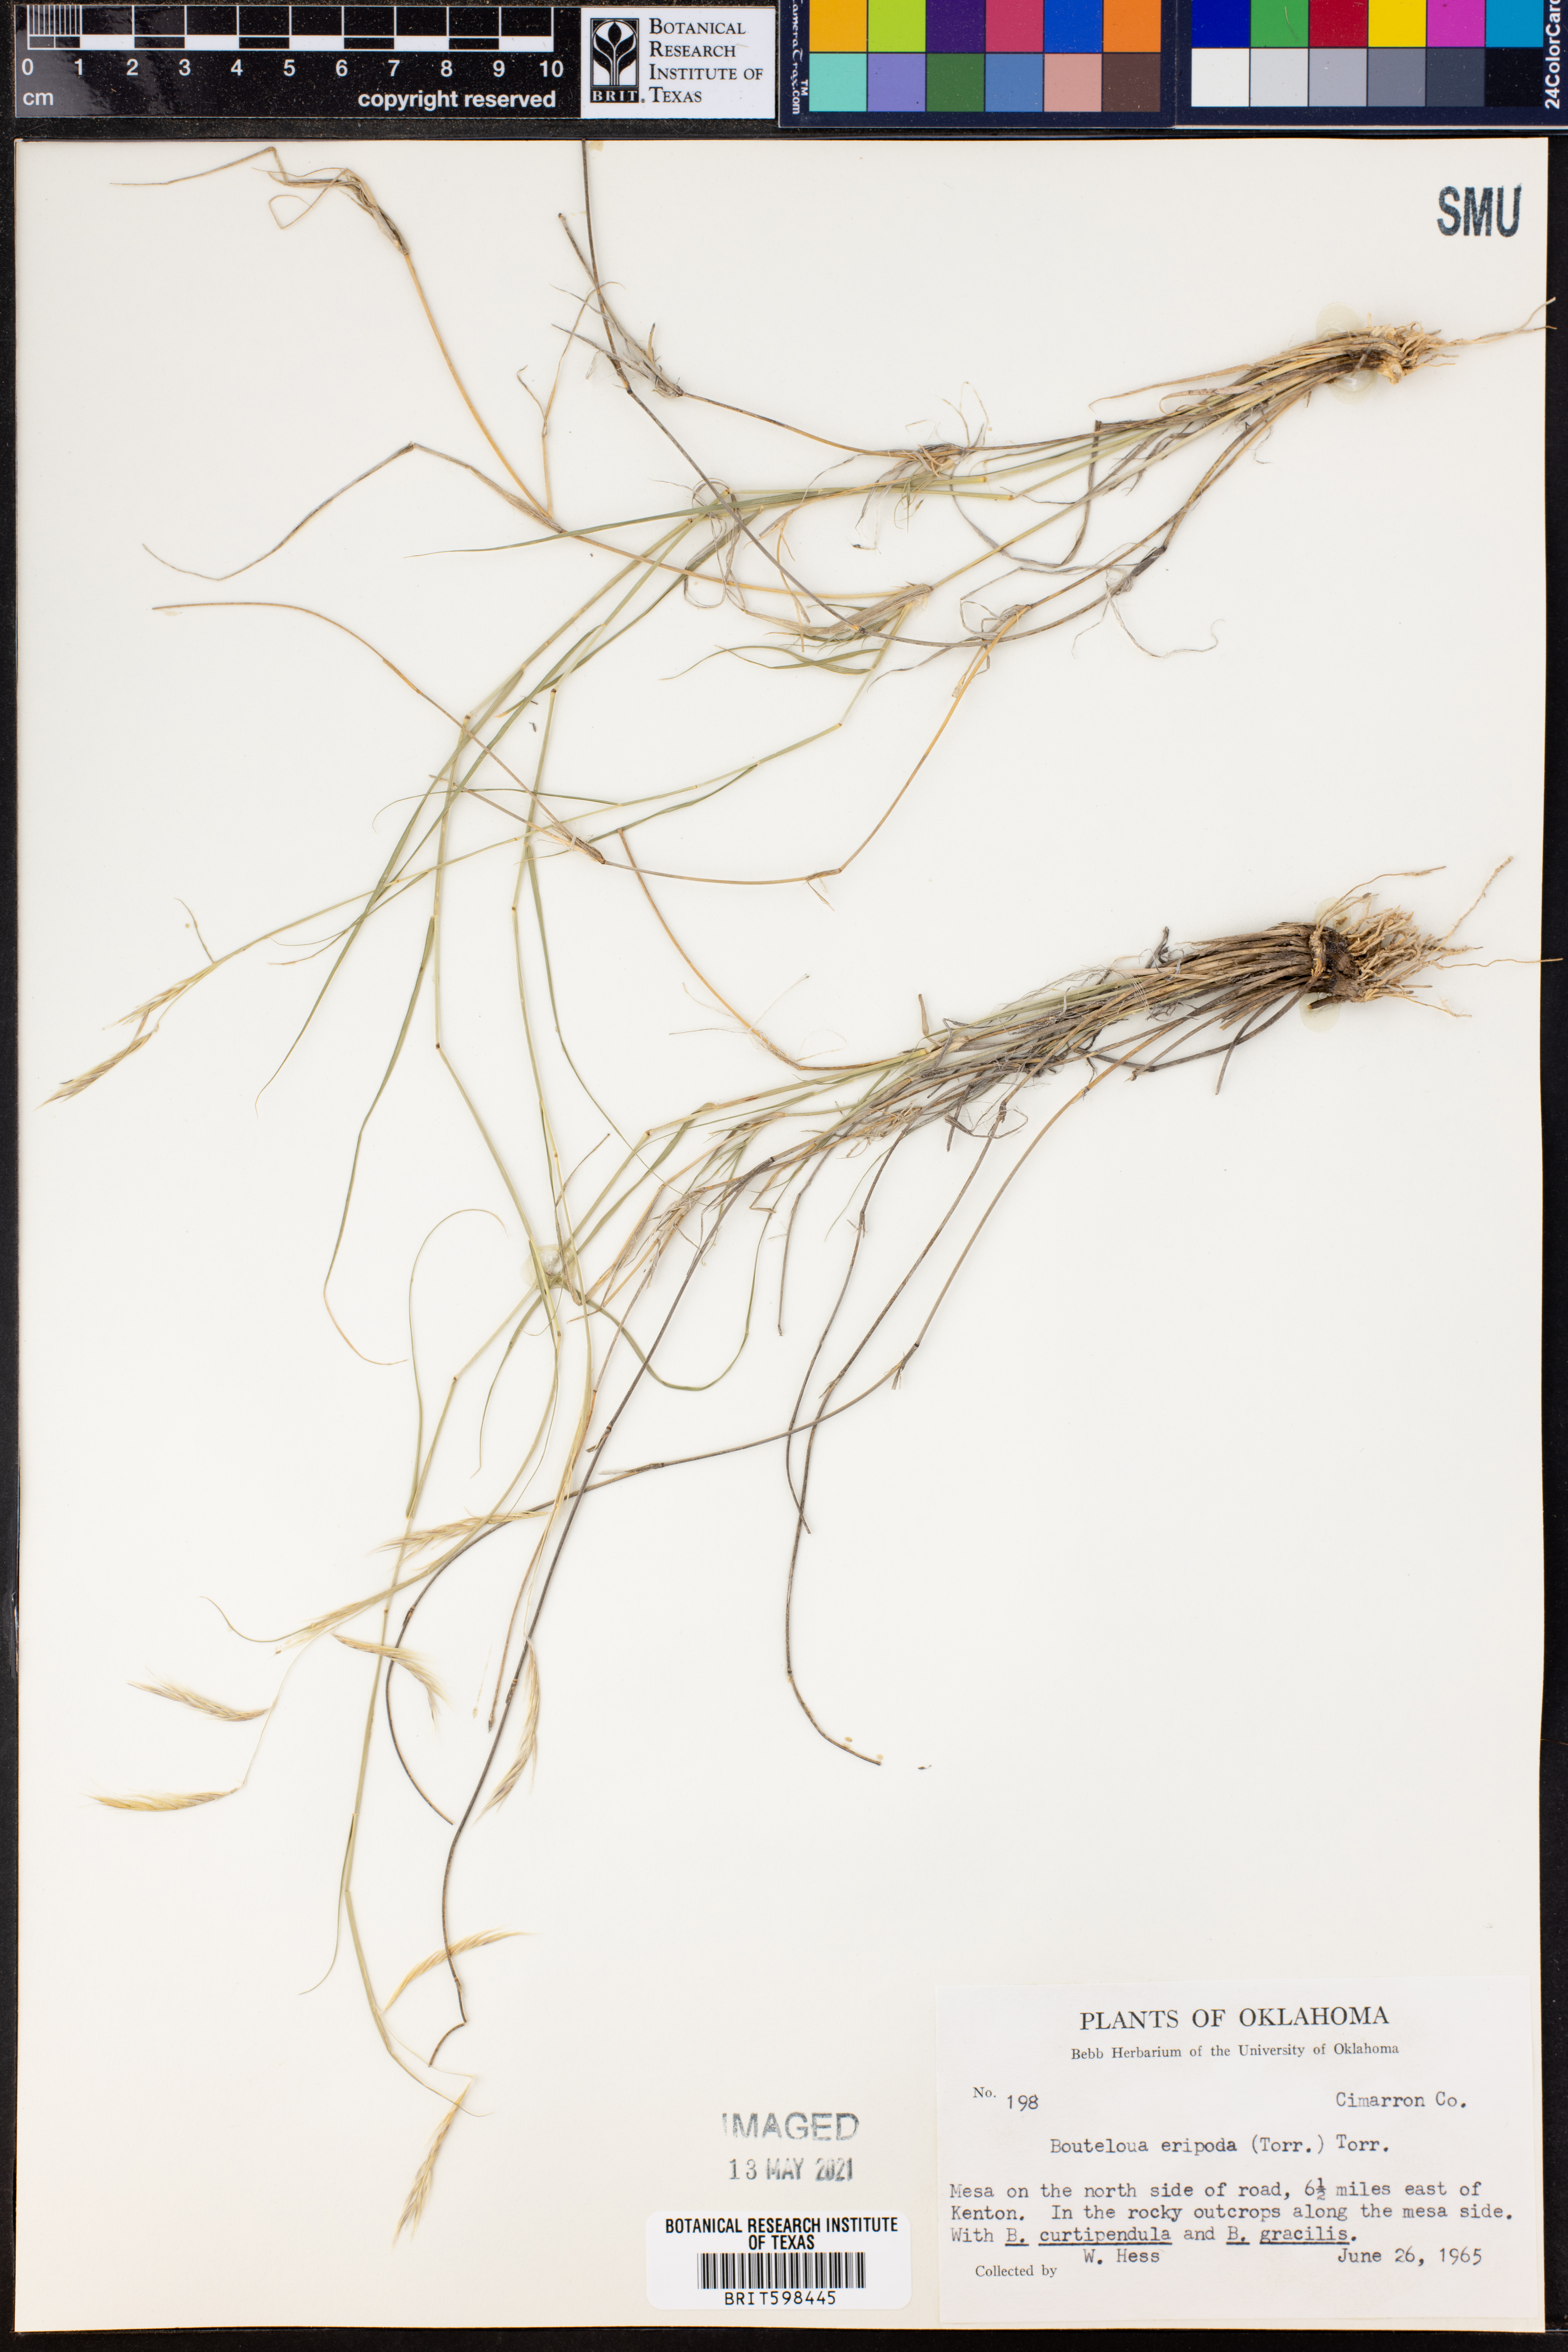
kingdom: Plantae
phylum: Tracheophyta
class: Liliopsida
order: Poales
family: Poaceae
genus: Bouteloua
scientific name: Bouteloua eriopoda
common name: Woolly foot grama
